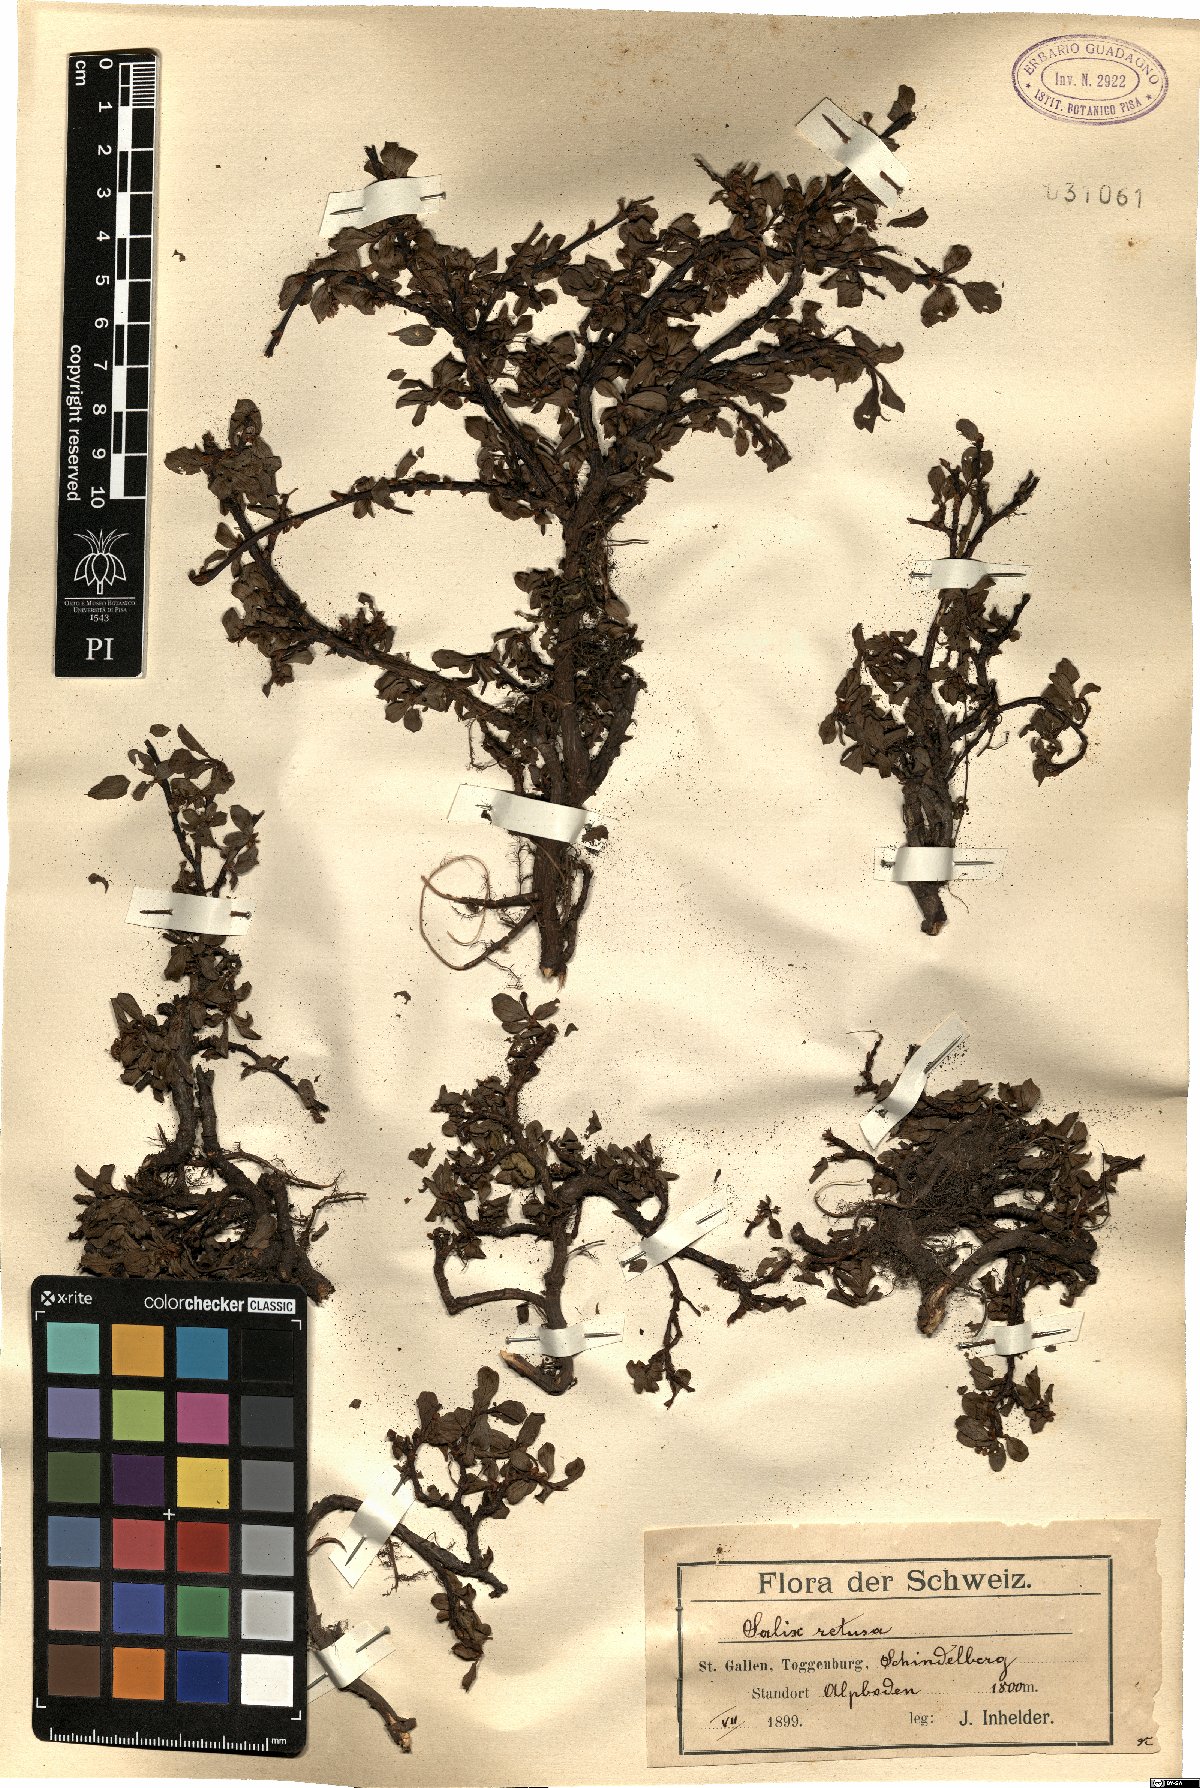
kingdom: Plantae
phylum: Tracheophyta
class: Magnoliopsida
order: Malpighiales
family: Salicaceae
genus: Salix
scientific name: Salix retusa
